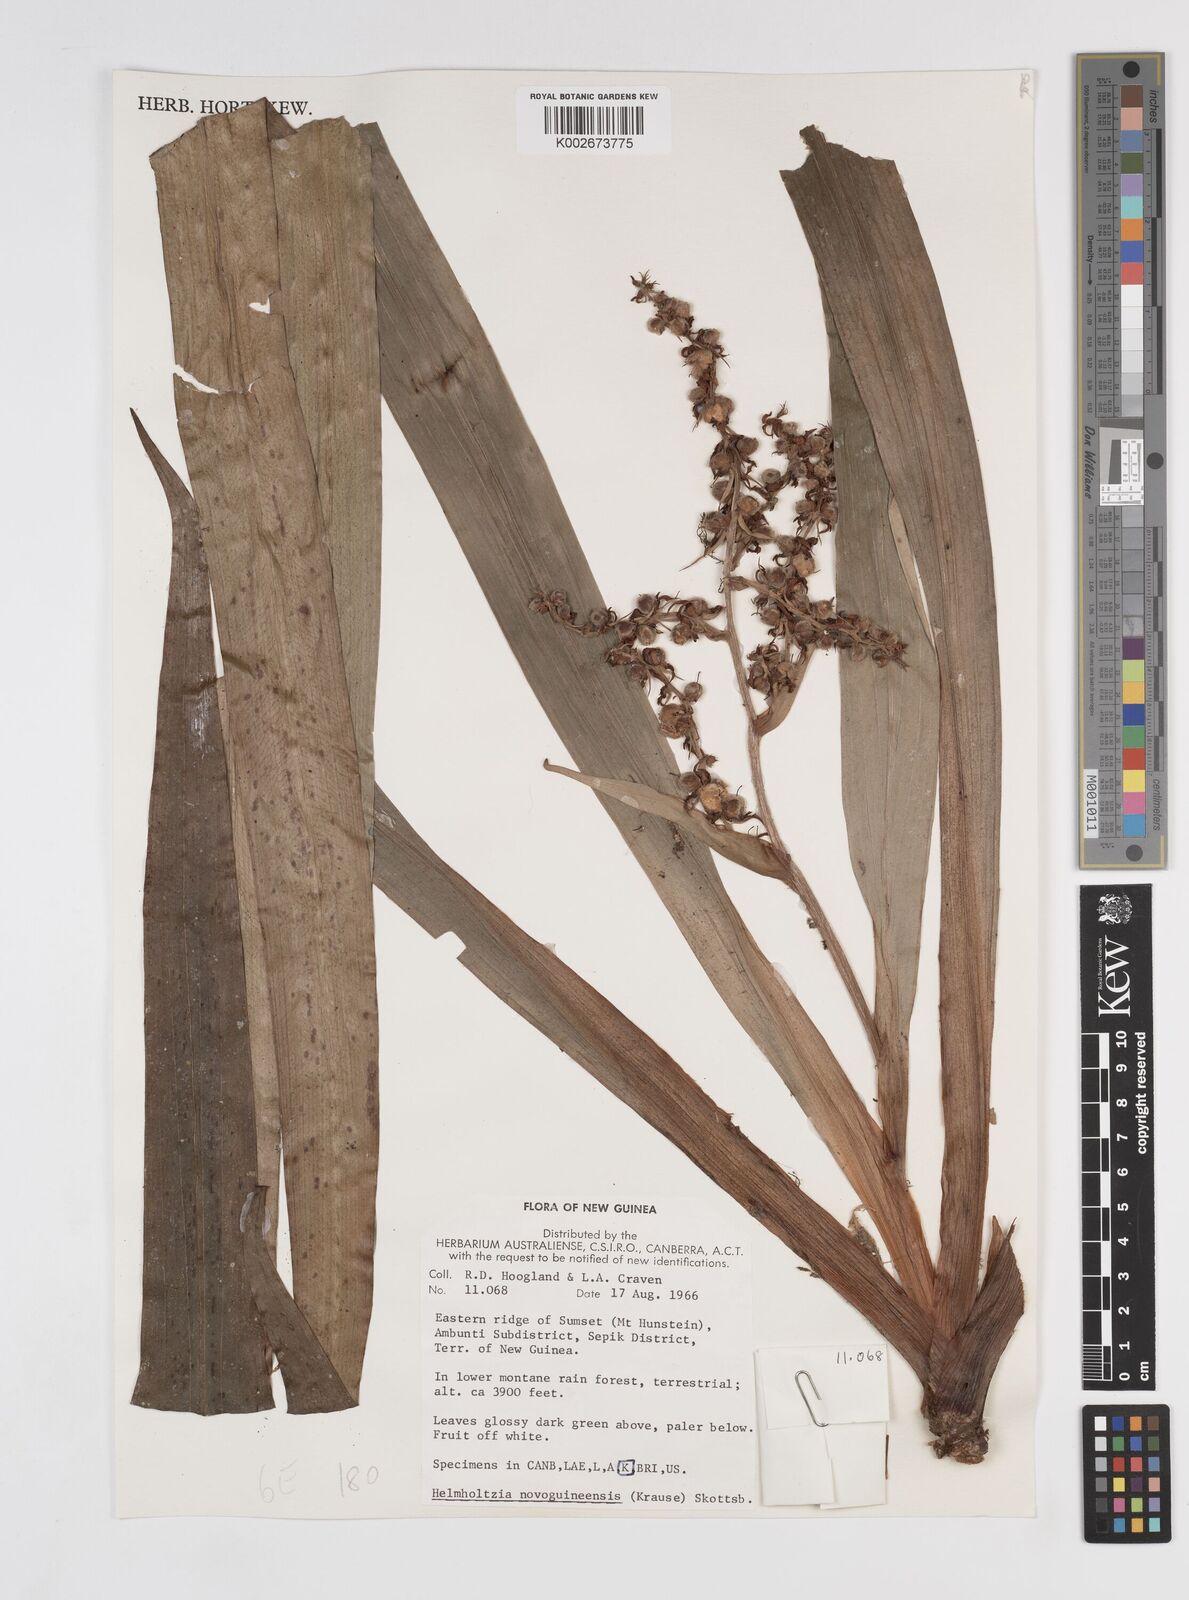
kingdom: Plantae
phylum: Tracheophyta
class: Liliopsida
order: Commelinales
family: Philydraceae
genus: Helmholtzia
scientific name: Helmholtzia novoguineensis
